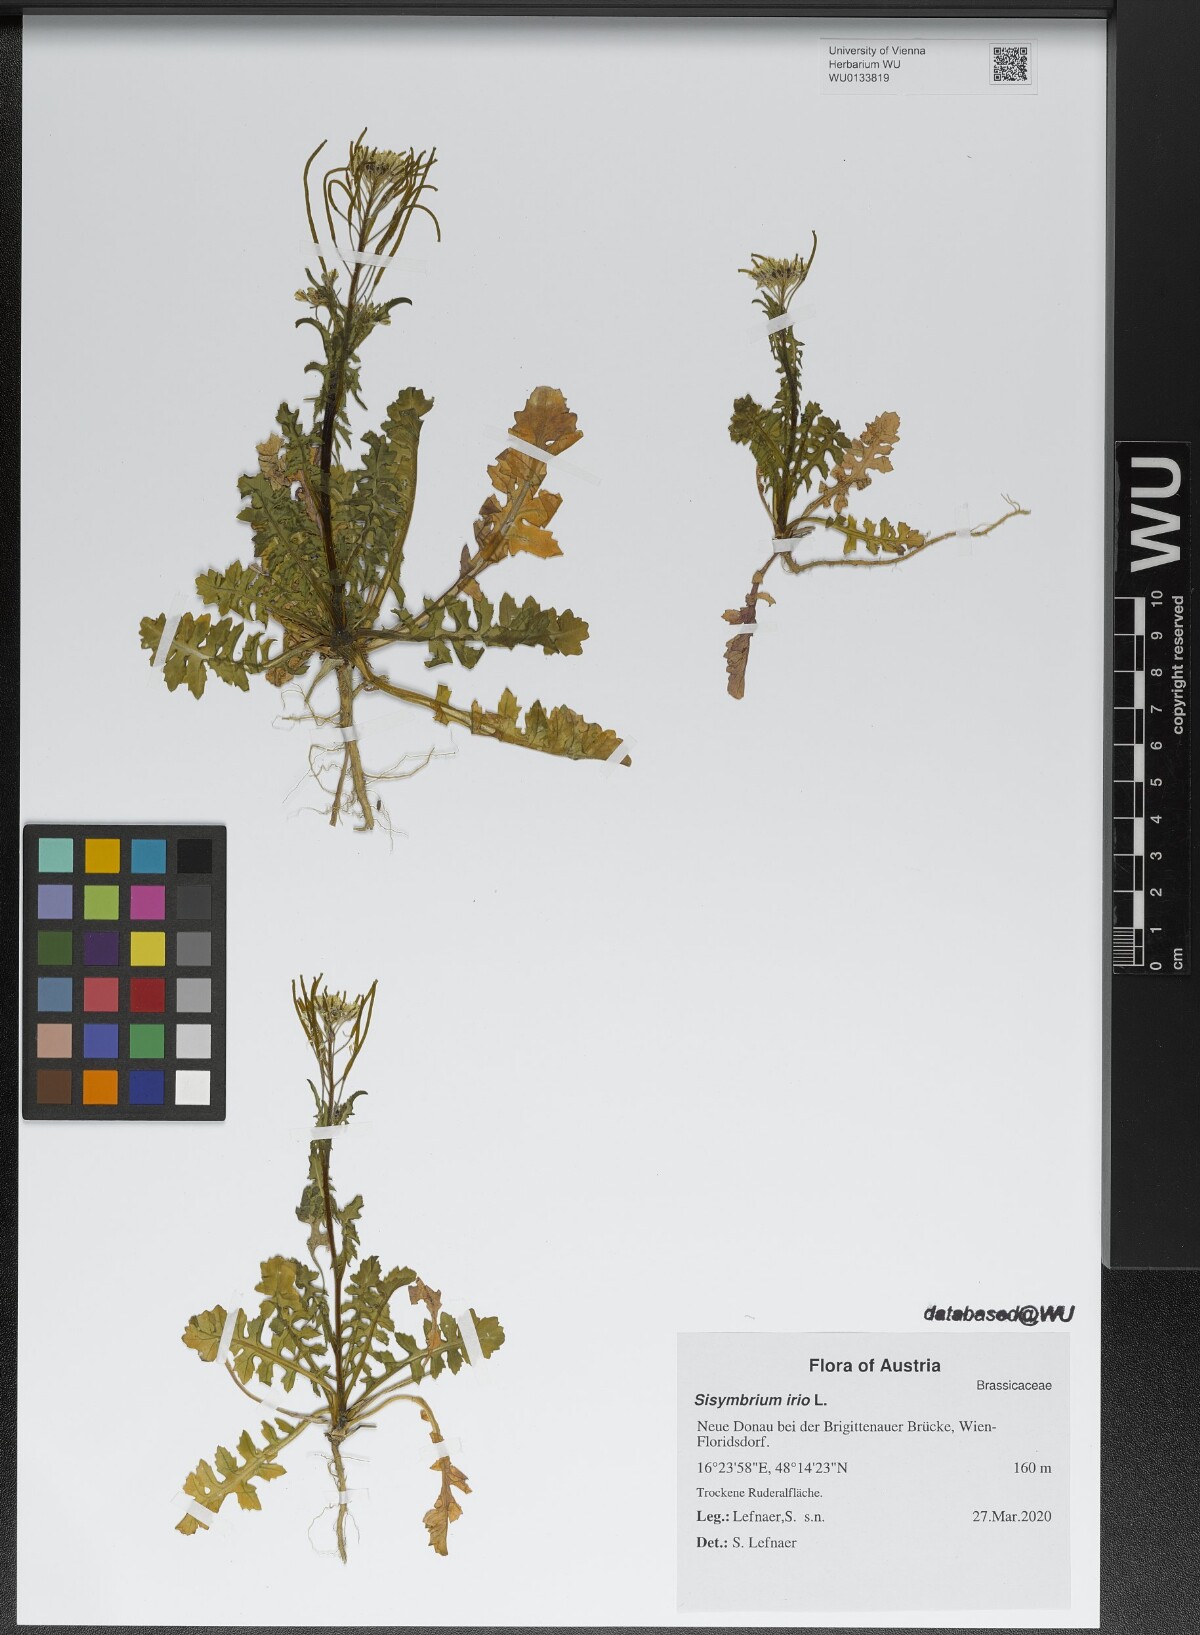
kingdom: Plantae
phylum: Tracheophyta
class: Magnoliopsida
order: Brassicales
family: Brassicaceae
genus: Sisymbrium
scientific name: Sisymbrium irio
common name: London rocket
